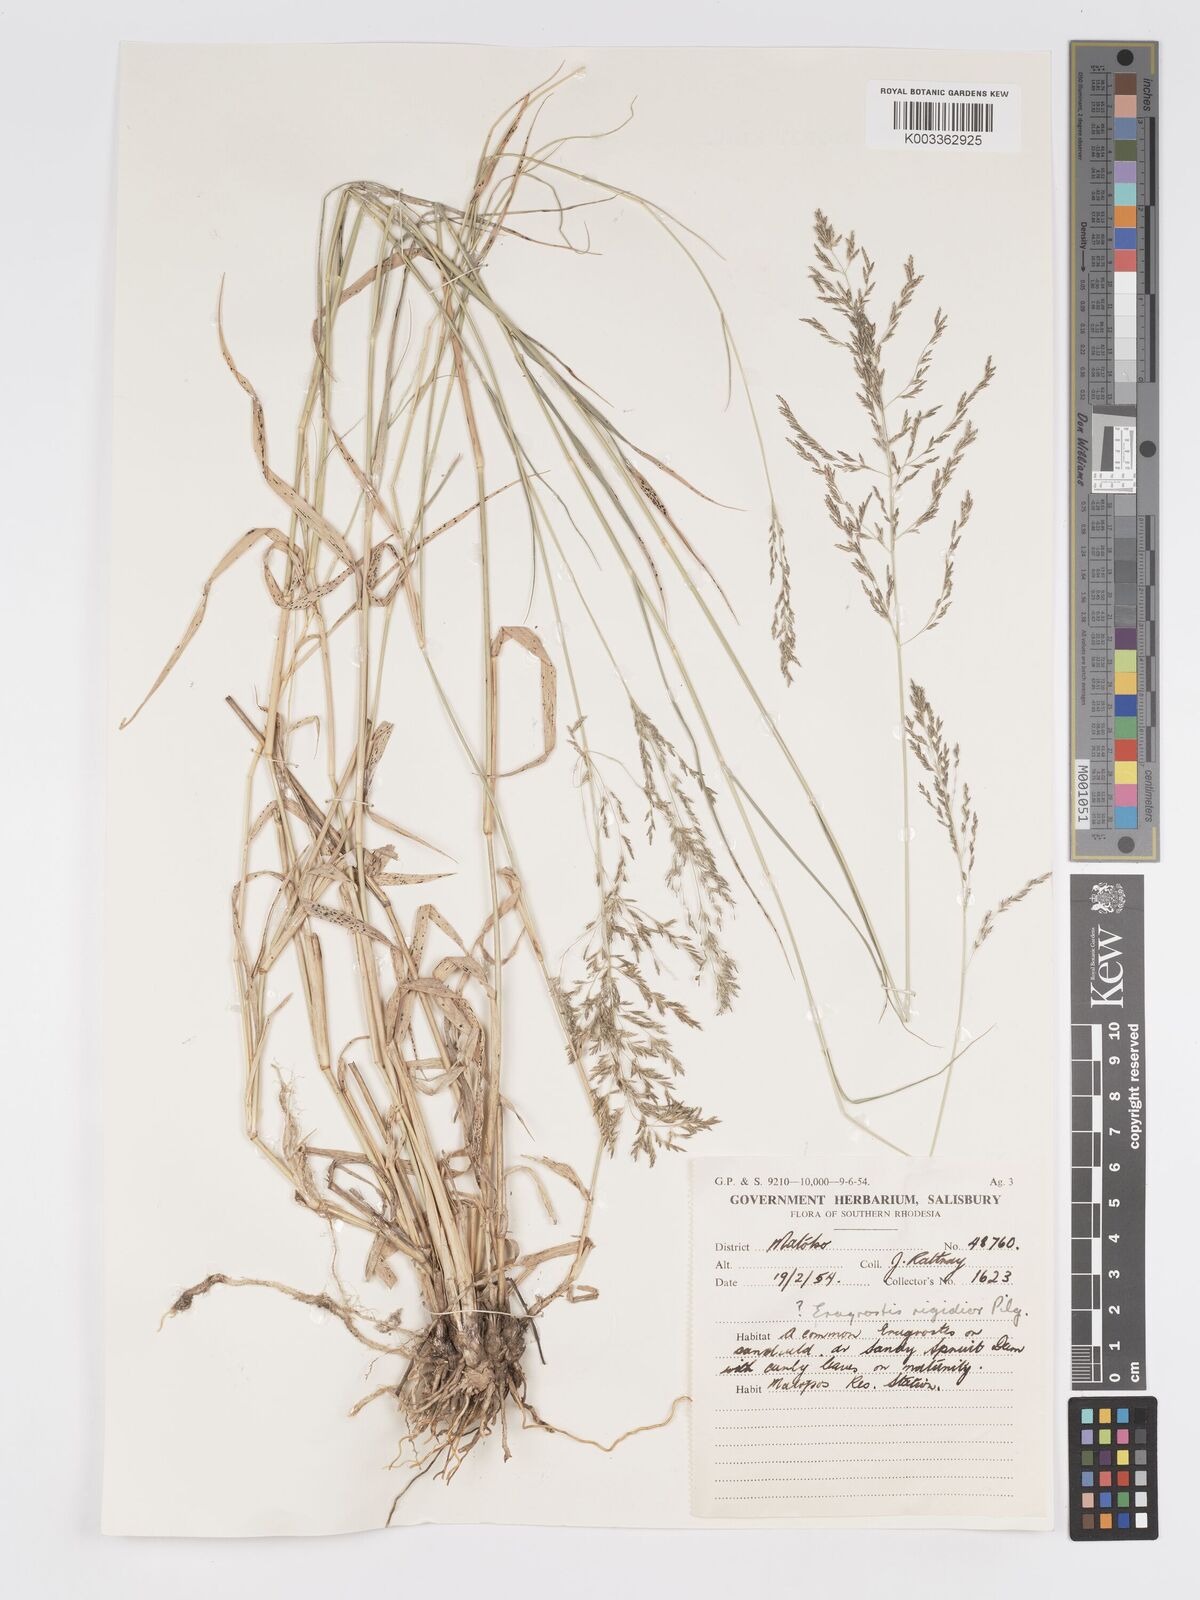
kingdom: Plantae
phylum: Tracheophyta
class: Liliopsida
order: Poales
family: Poaceae
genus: Eragrostis
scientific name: Eragrostis cylindriflora
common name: Cylinderflower lovegrass
